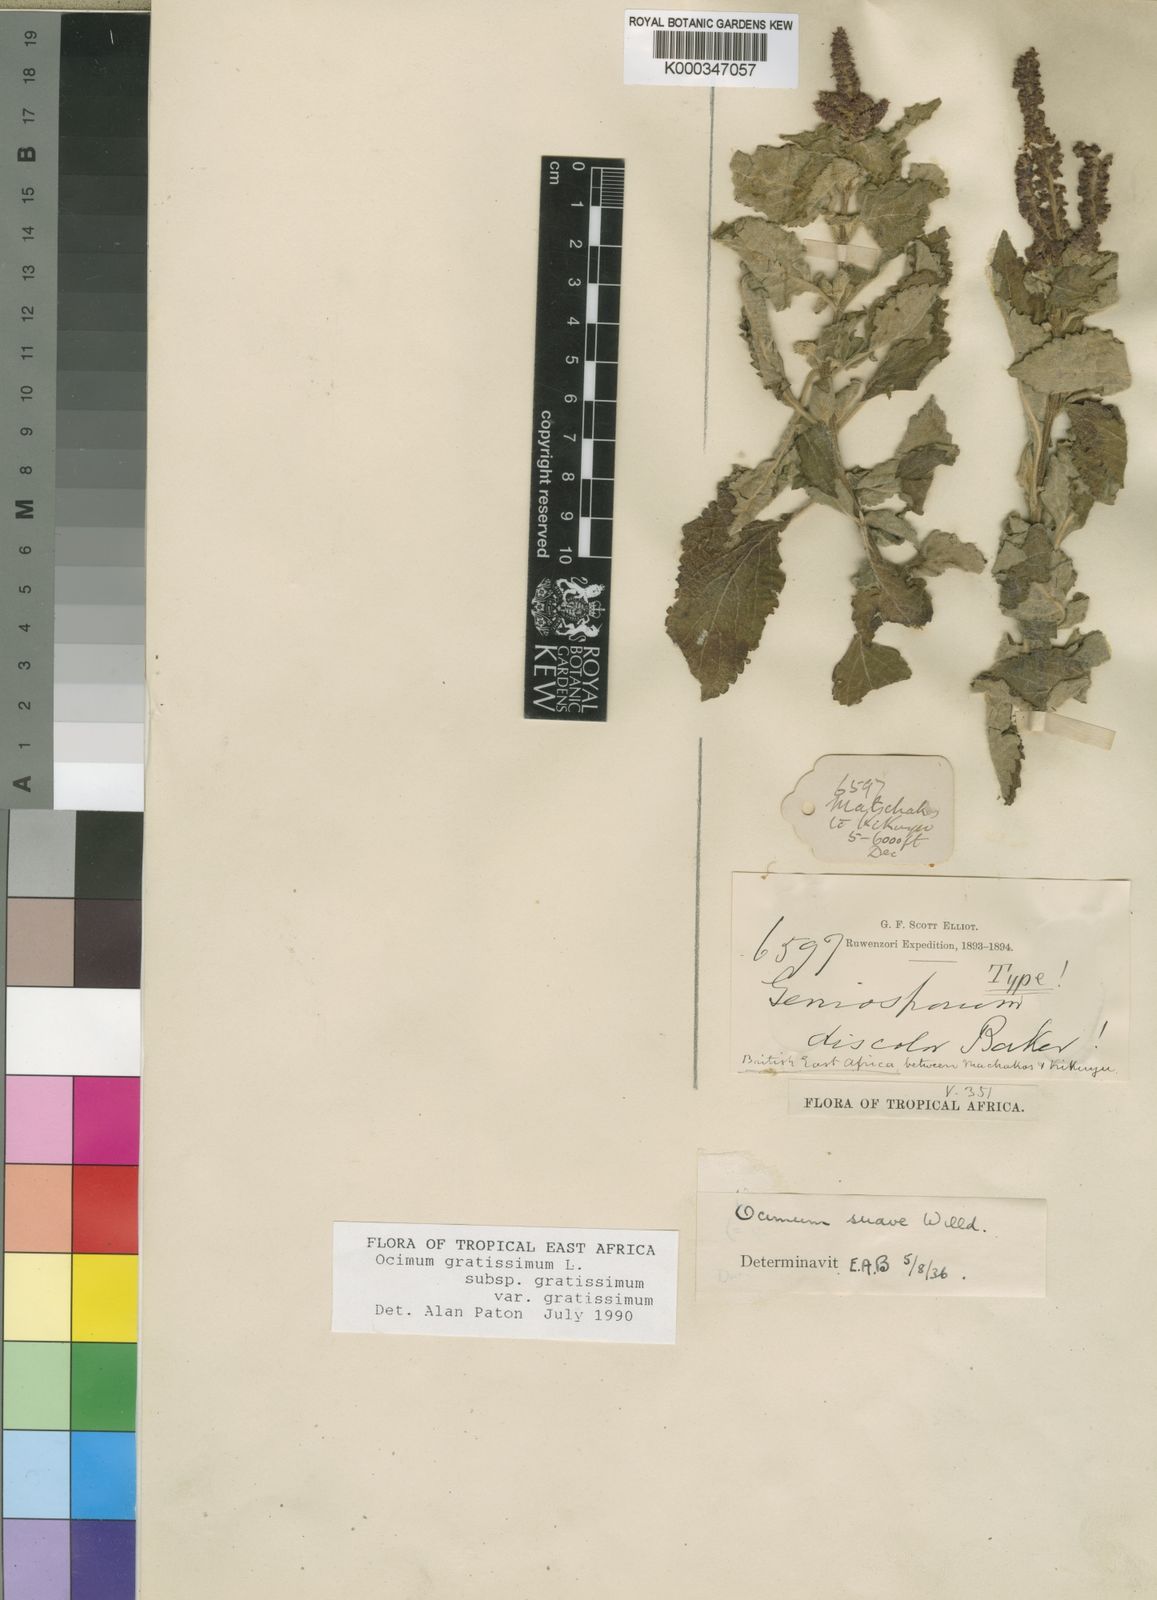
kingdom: Plantae
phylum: Tracheophyta
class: Magnoliopsida
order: Lamiales
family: Lamiaceae
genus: Ocimum
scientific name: Ocimum gratissimum
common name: African basil
